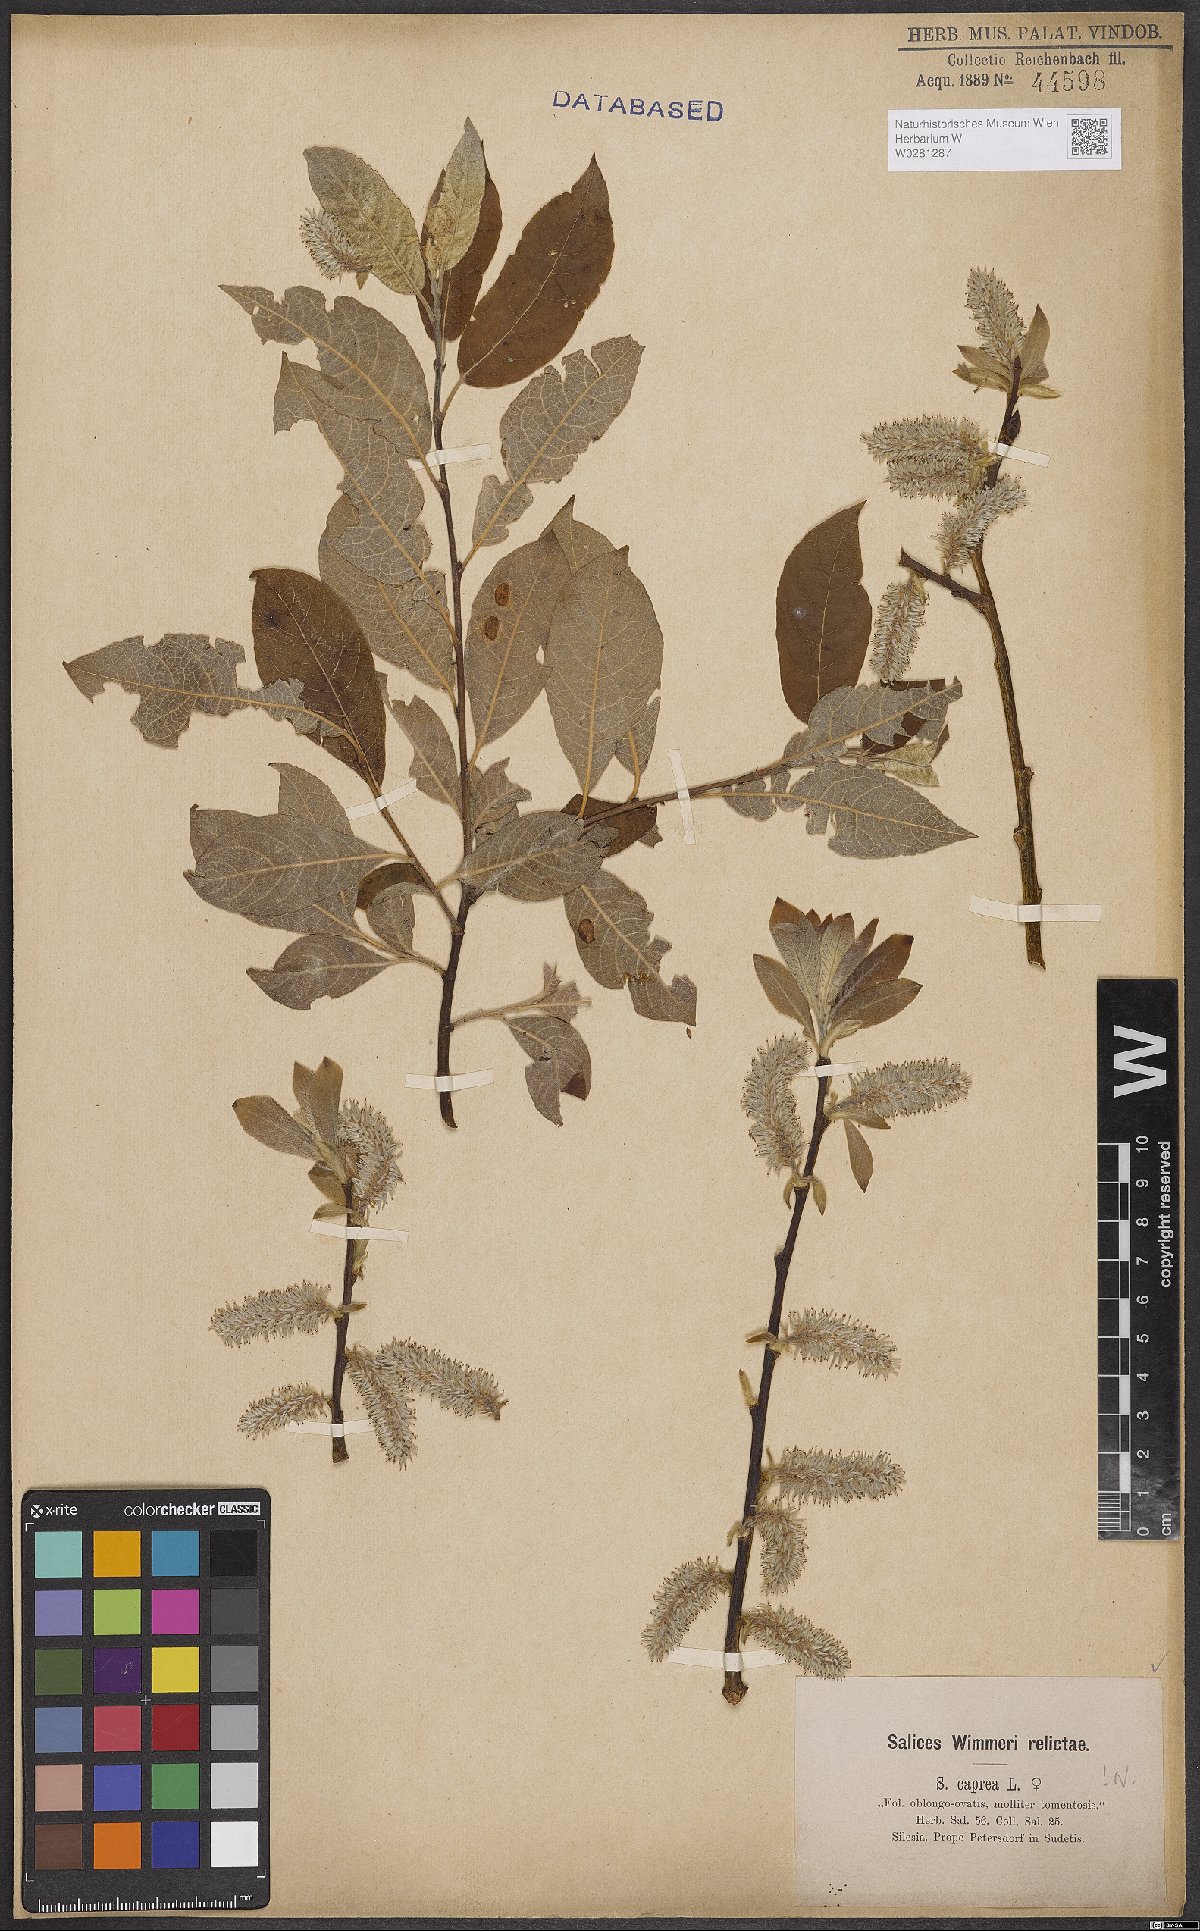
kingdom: Plantae
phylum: Tracheophyta
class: Magnoliopsida
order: Malpighiales
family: Salicaceae
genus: Salix
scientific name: Salix caprea
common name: Goat willow
